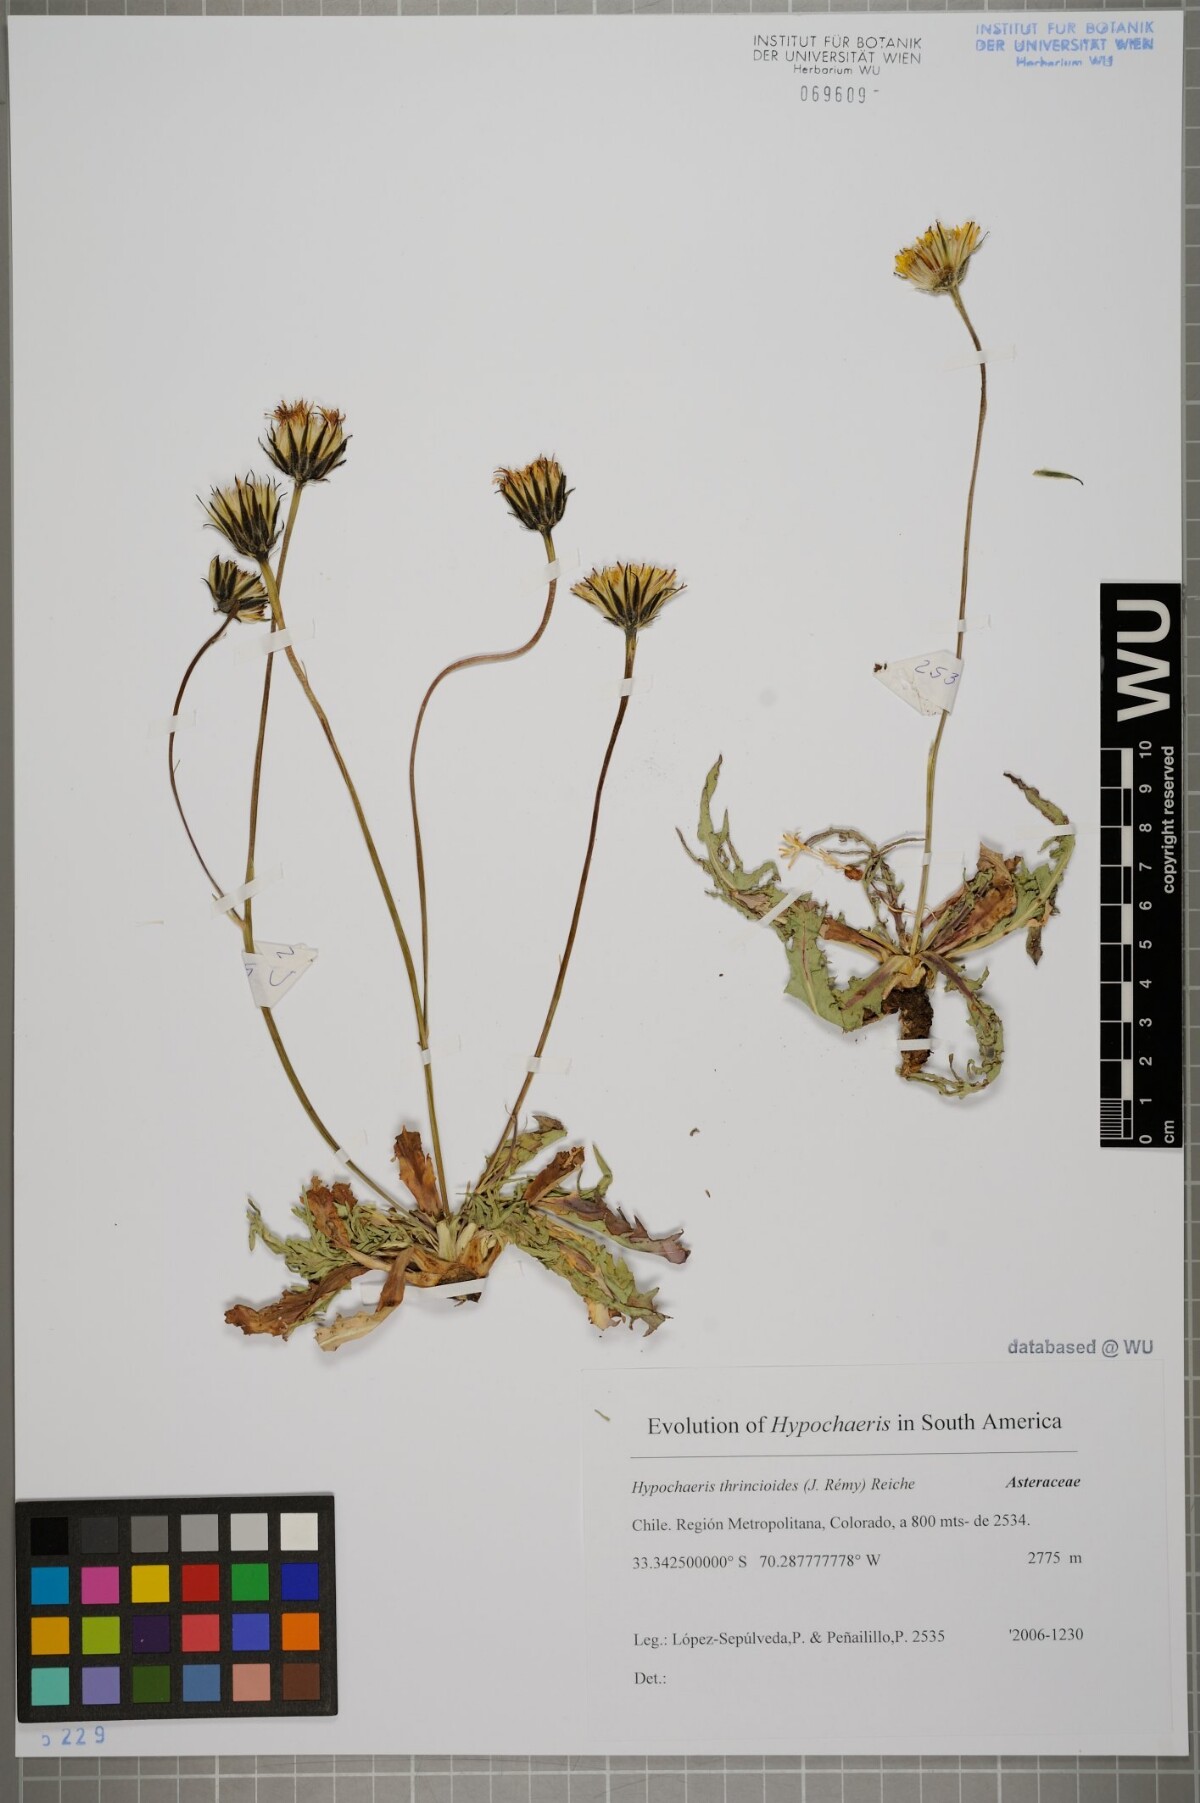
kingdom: Plantae
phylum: Tracheophyta
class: Magnoliopsida
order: Asterales
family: Asteraceae
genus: Hypochaeris
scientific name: Hypochaeris apargioides
